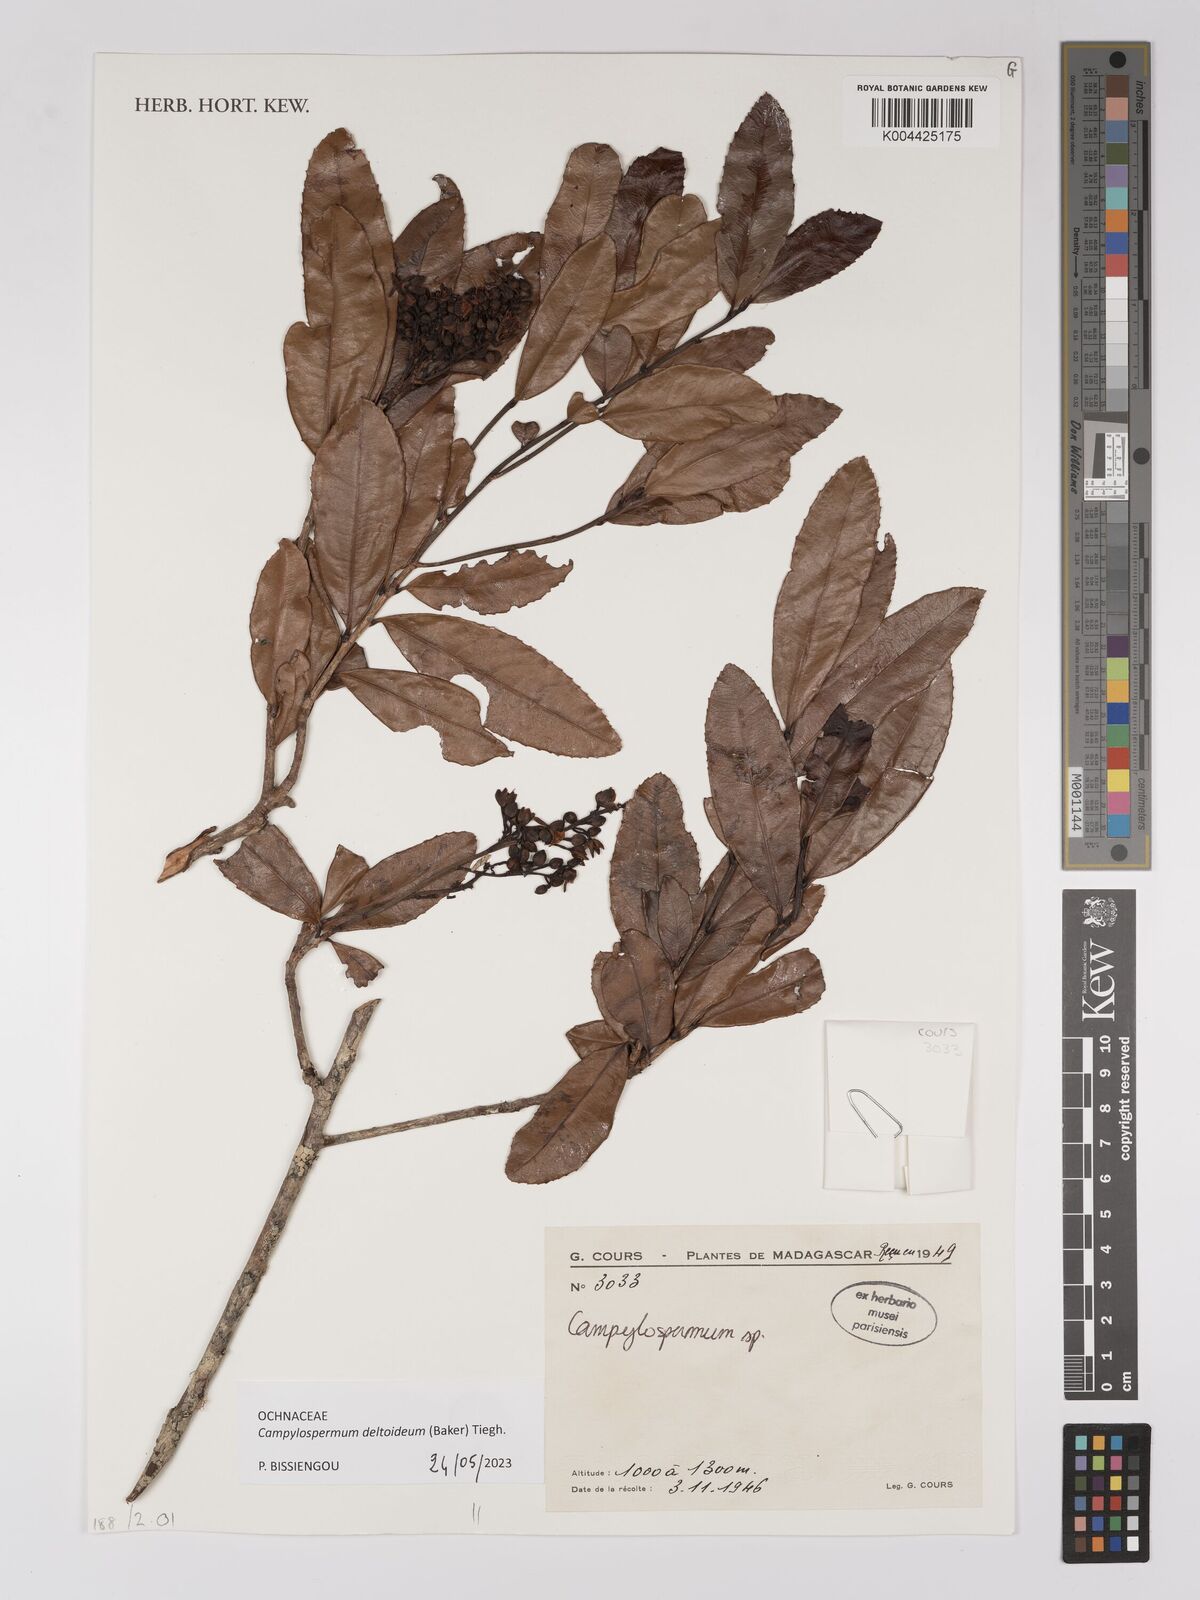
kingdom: Plantae
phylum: Tracheophyta
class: Magnoliopsida
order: Malpighiales
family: Ochnaceae
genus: Campylospermum
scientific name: Campylospermum
